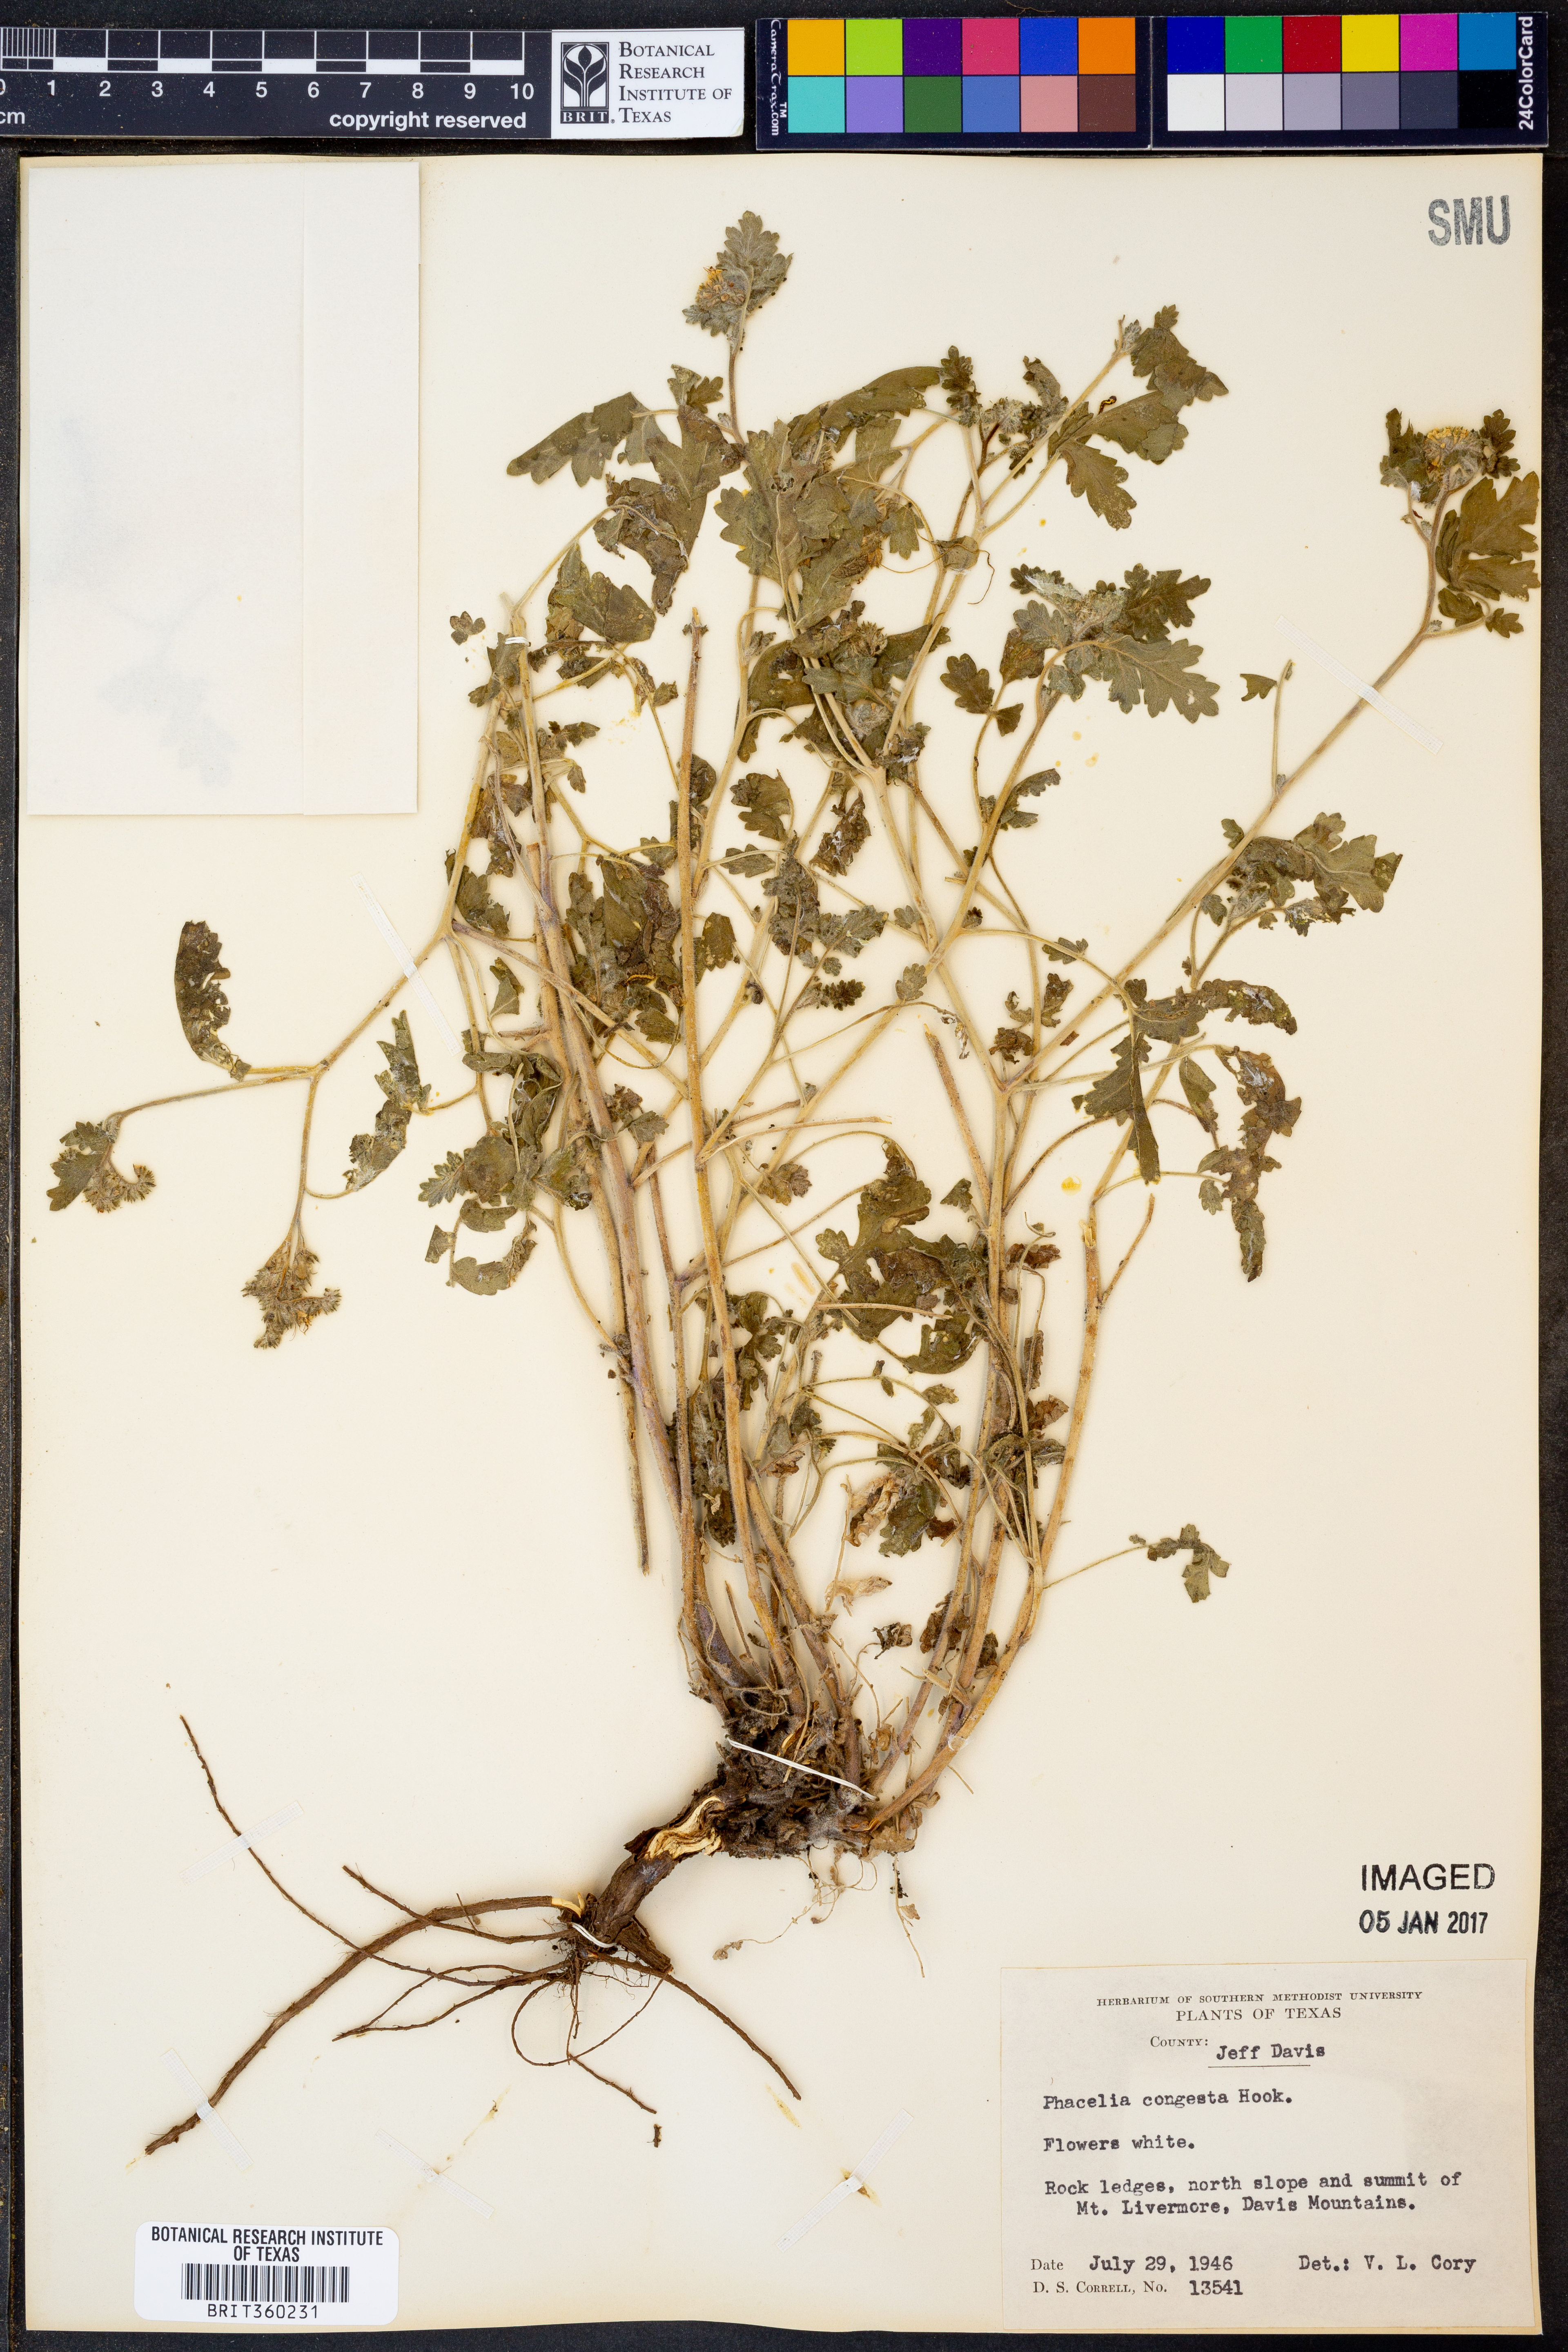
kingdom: Plantae
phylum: Tracheophyta
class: Magnoliopsida
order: Boraginales
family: Hydrophyllaceae
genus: Phacelia
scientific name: Phacelia congesta
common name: Blue curls
